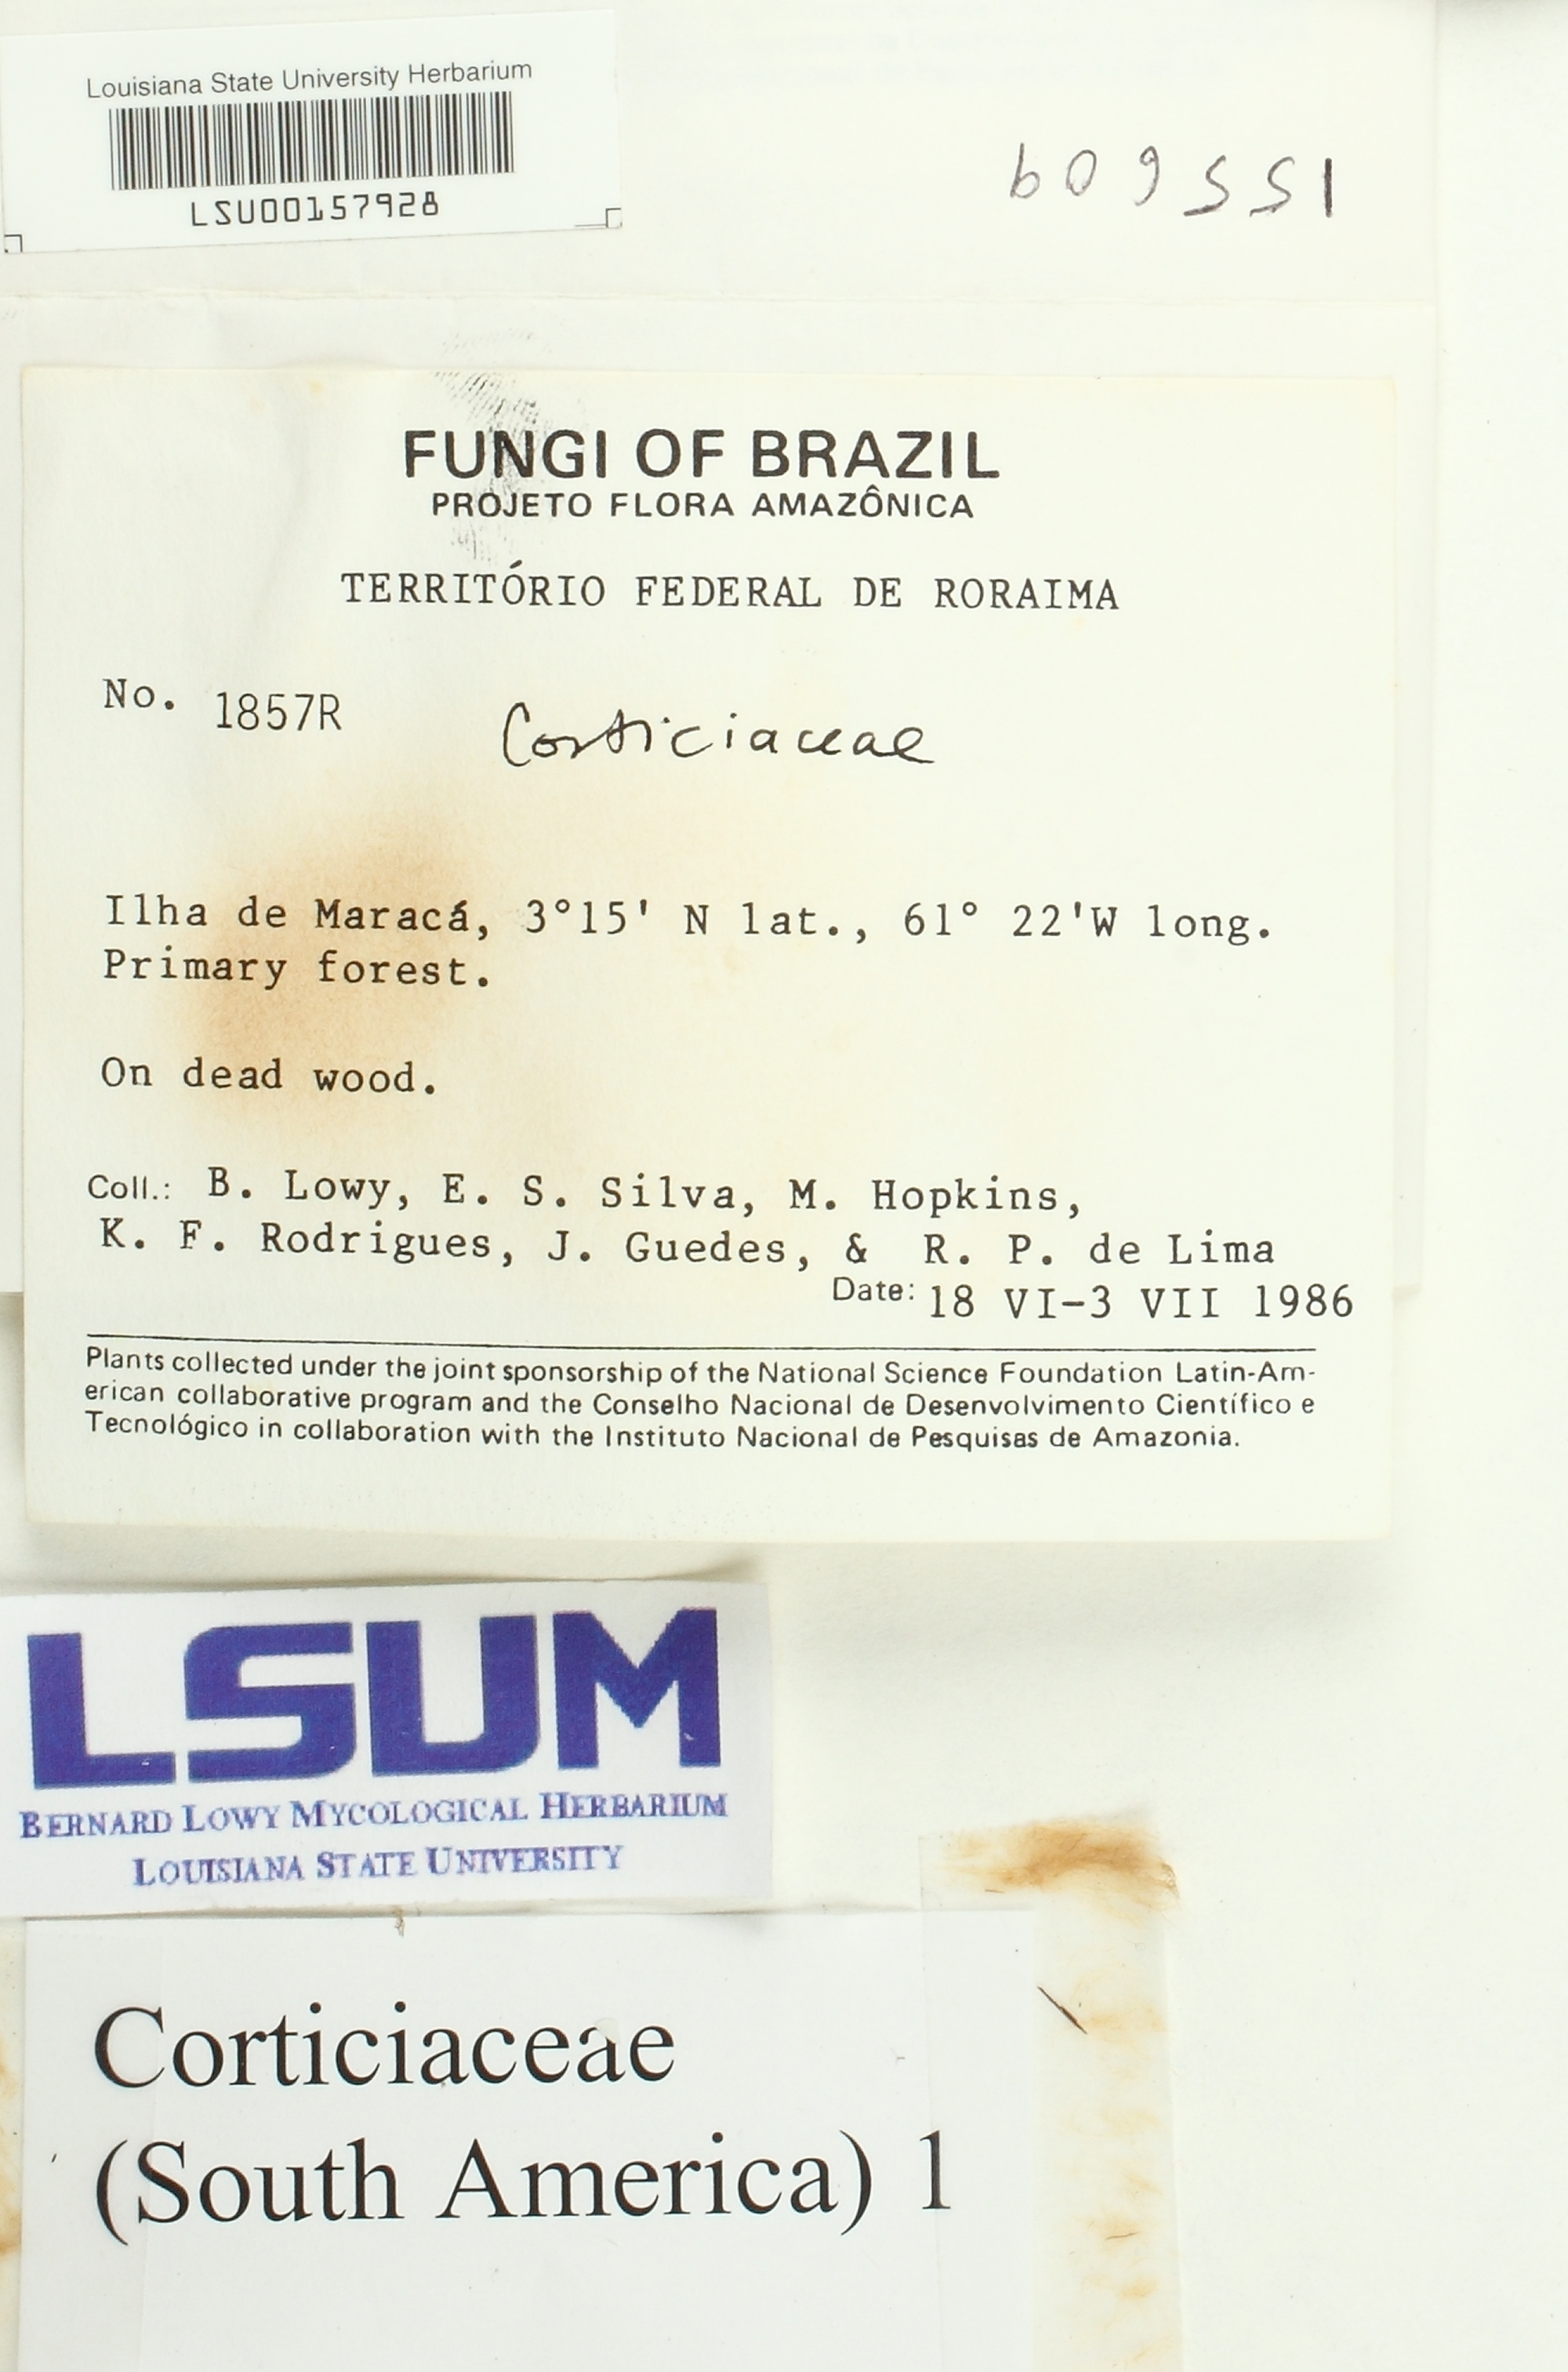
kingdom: Fungi
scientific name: Fungi
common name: Fungi
